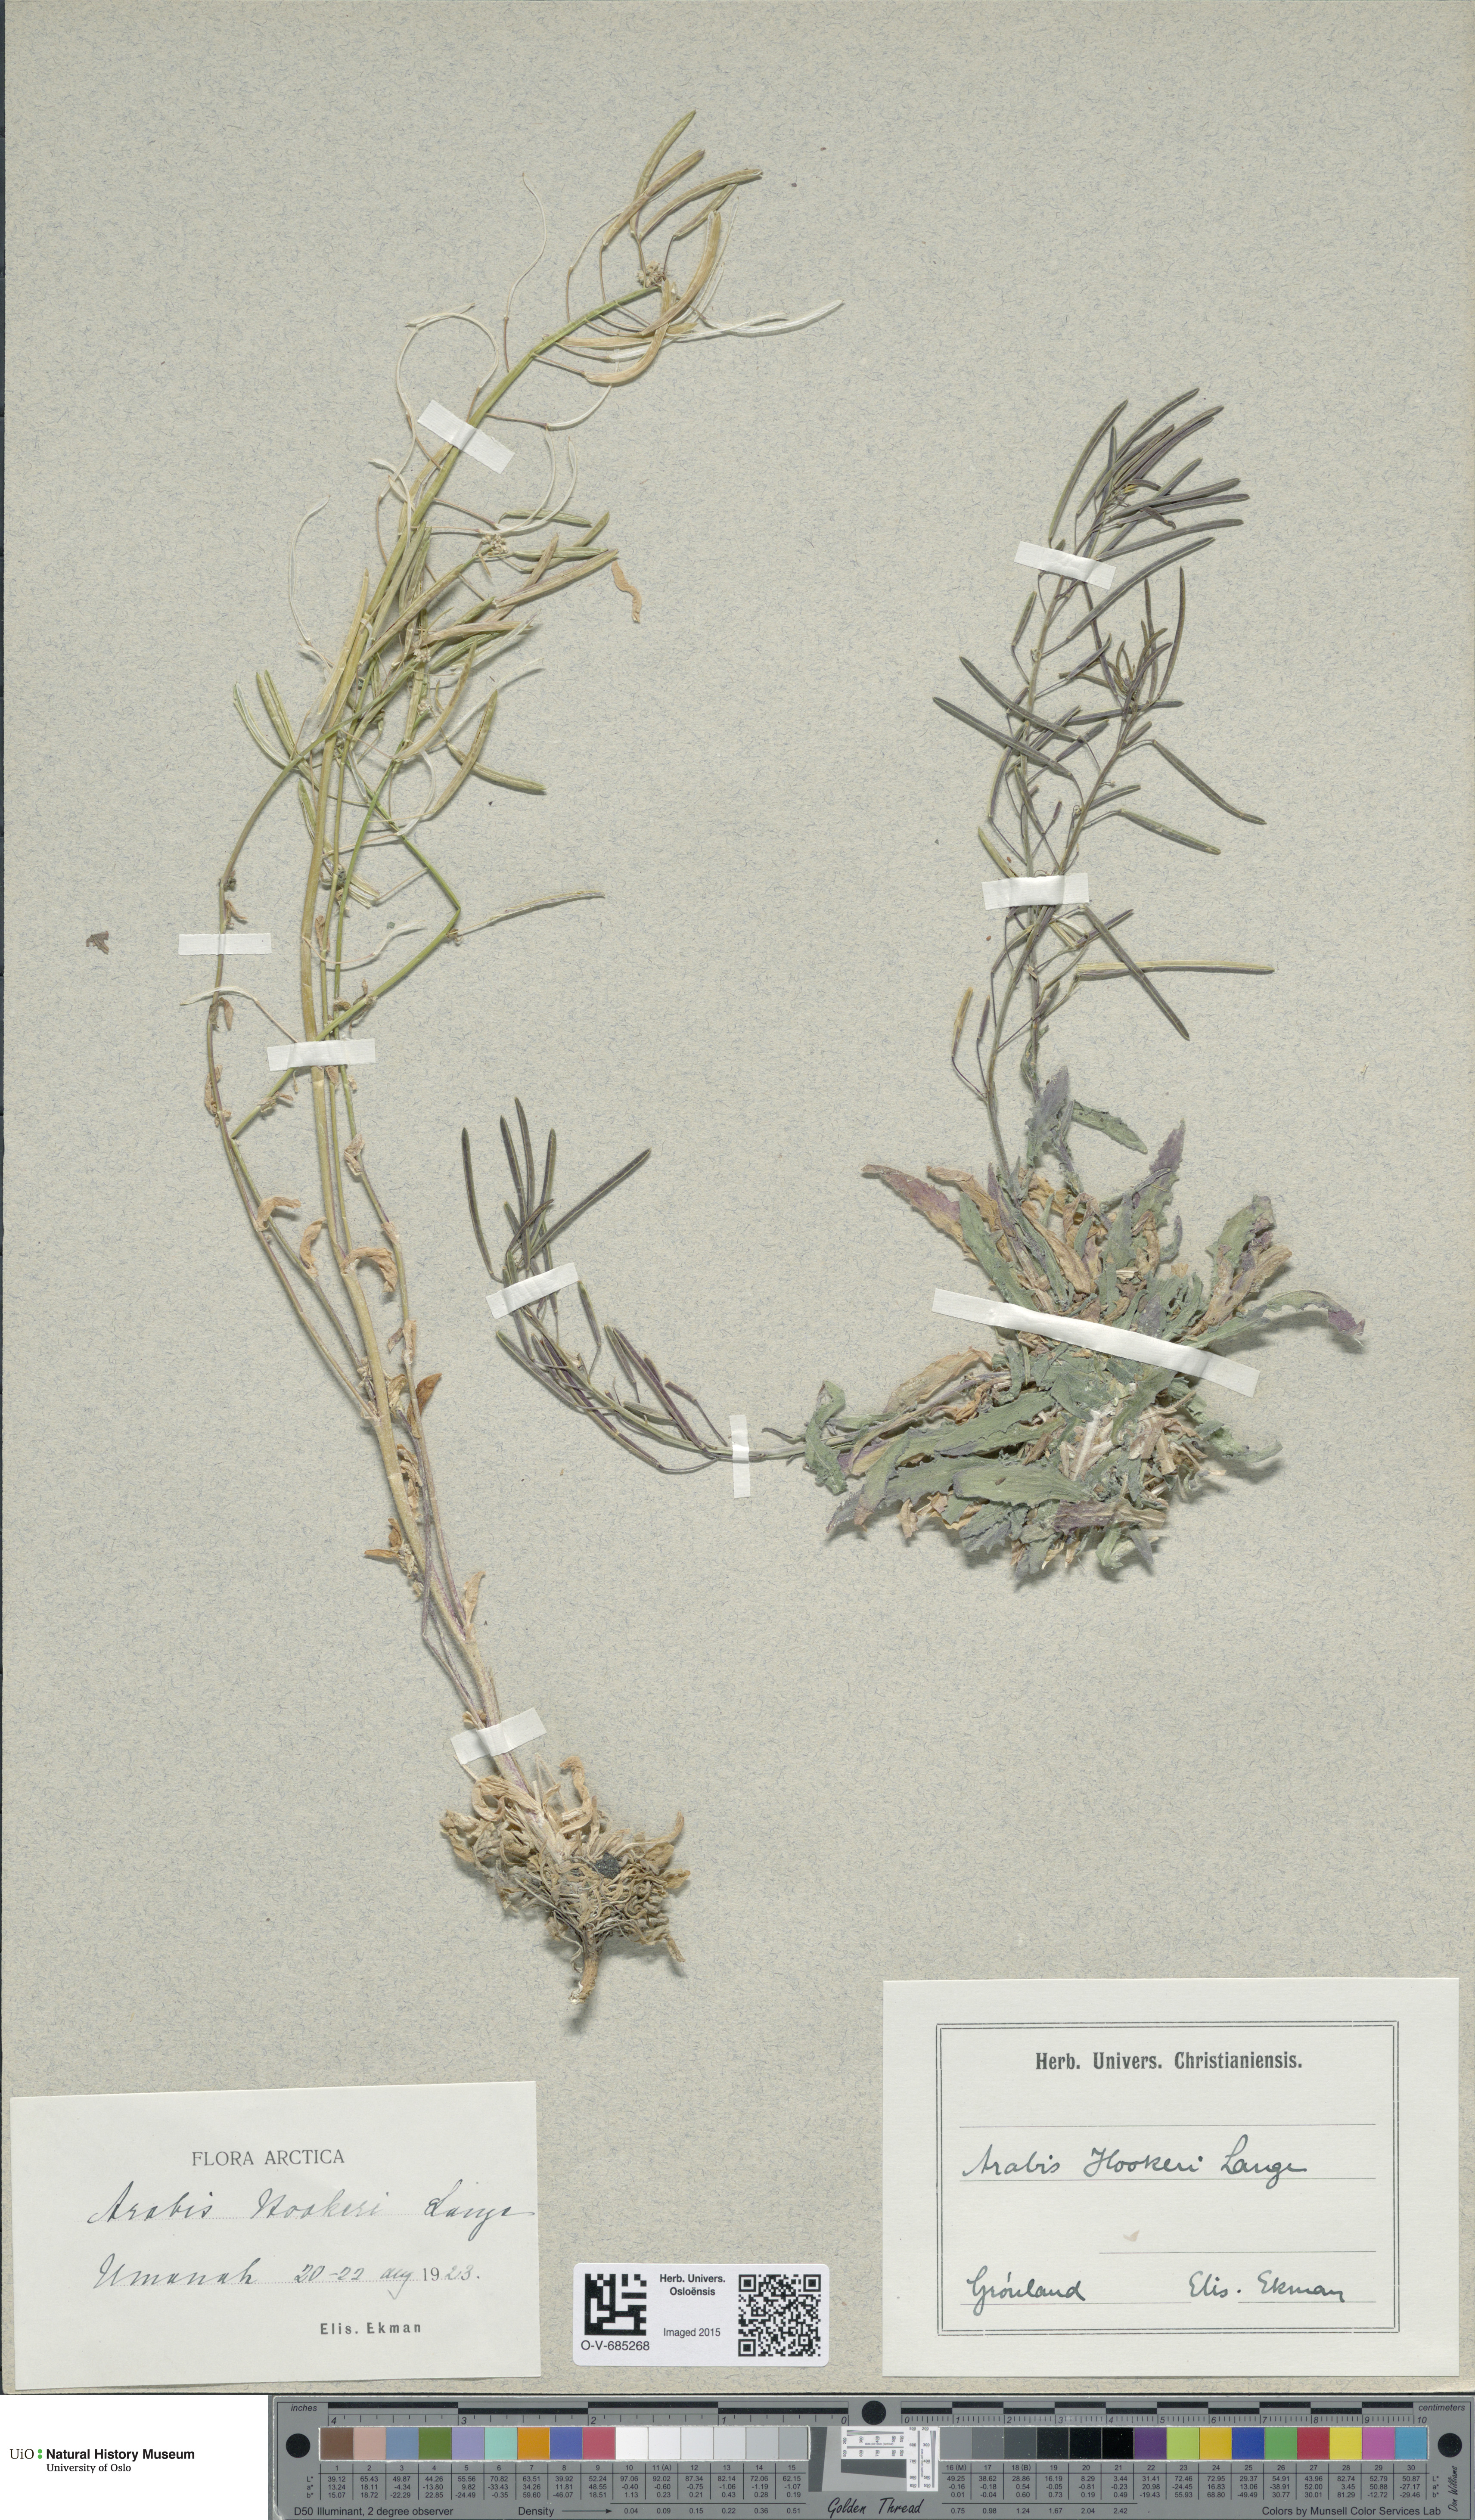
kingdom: Plantae
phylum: Tracheophyta
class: Magnoliopsida
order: Brassicales
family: Brassicaceae
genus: Crucihimalaya
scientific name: Crucihimalaya bursifolia
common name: Soft fissurewort
